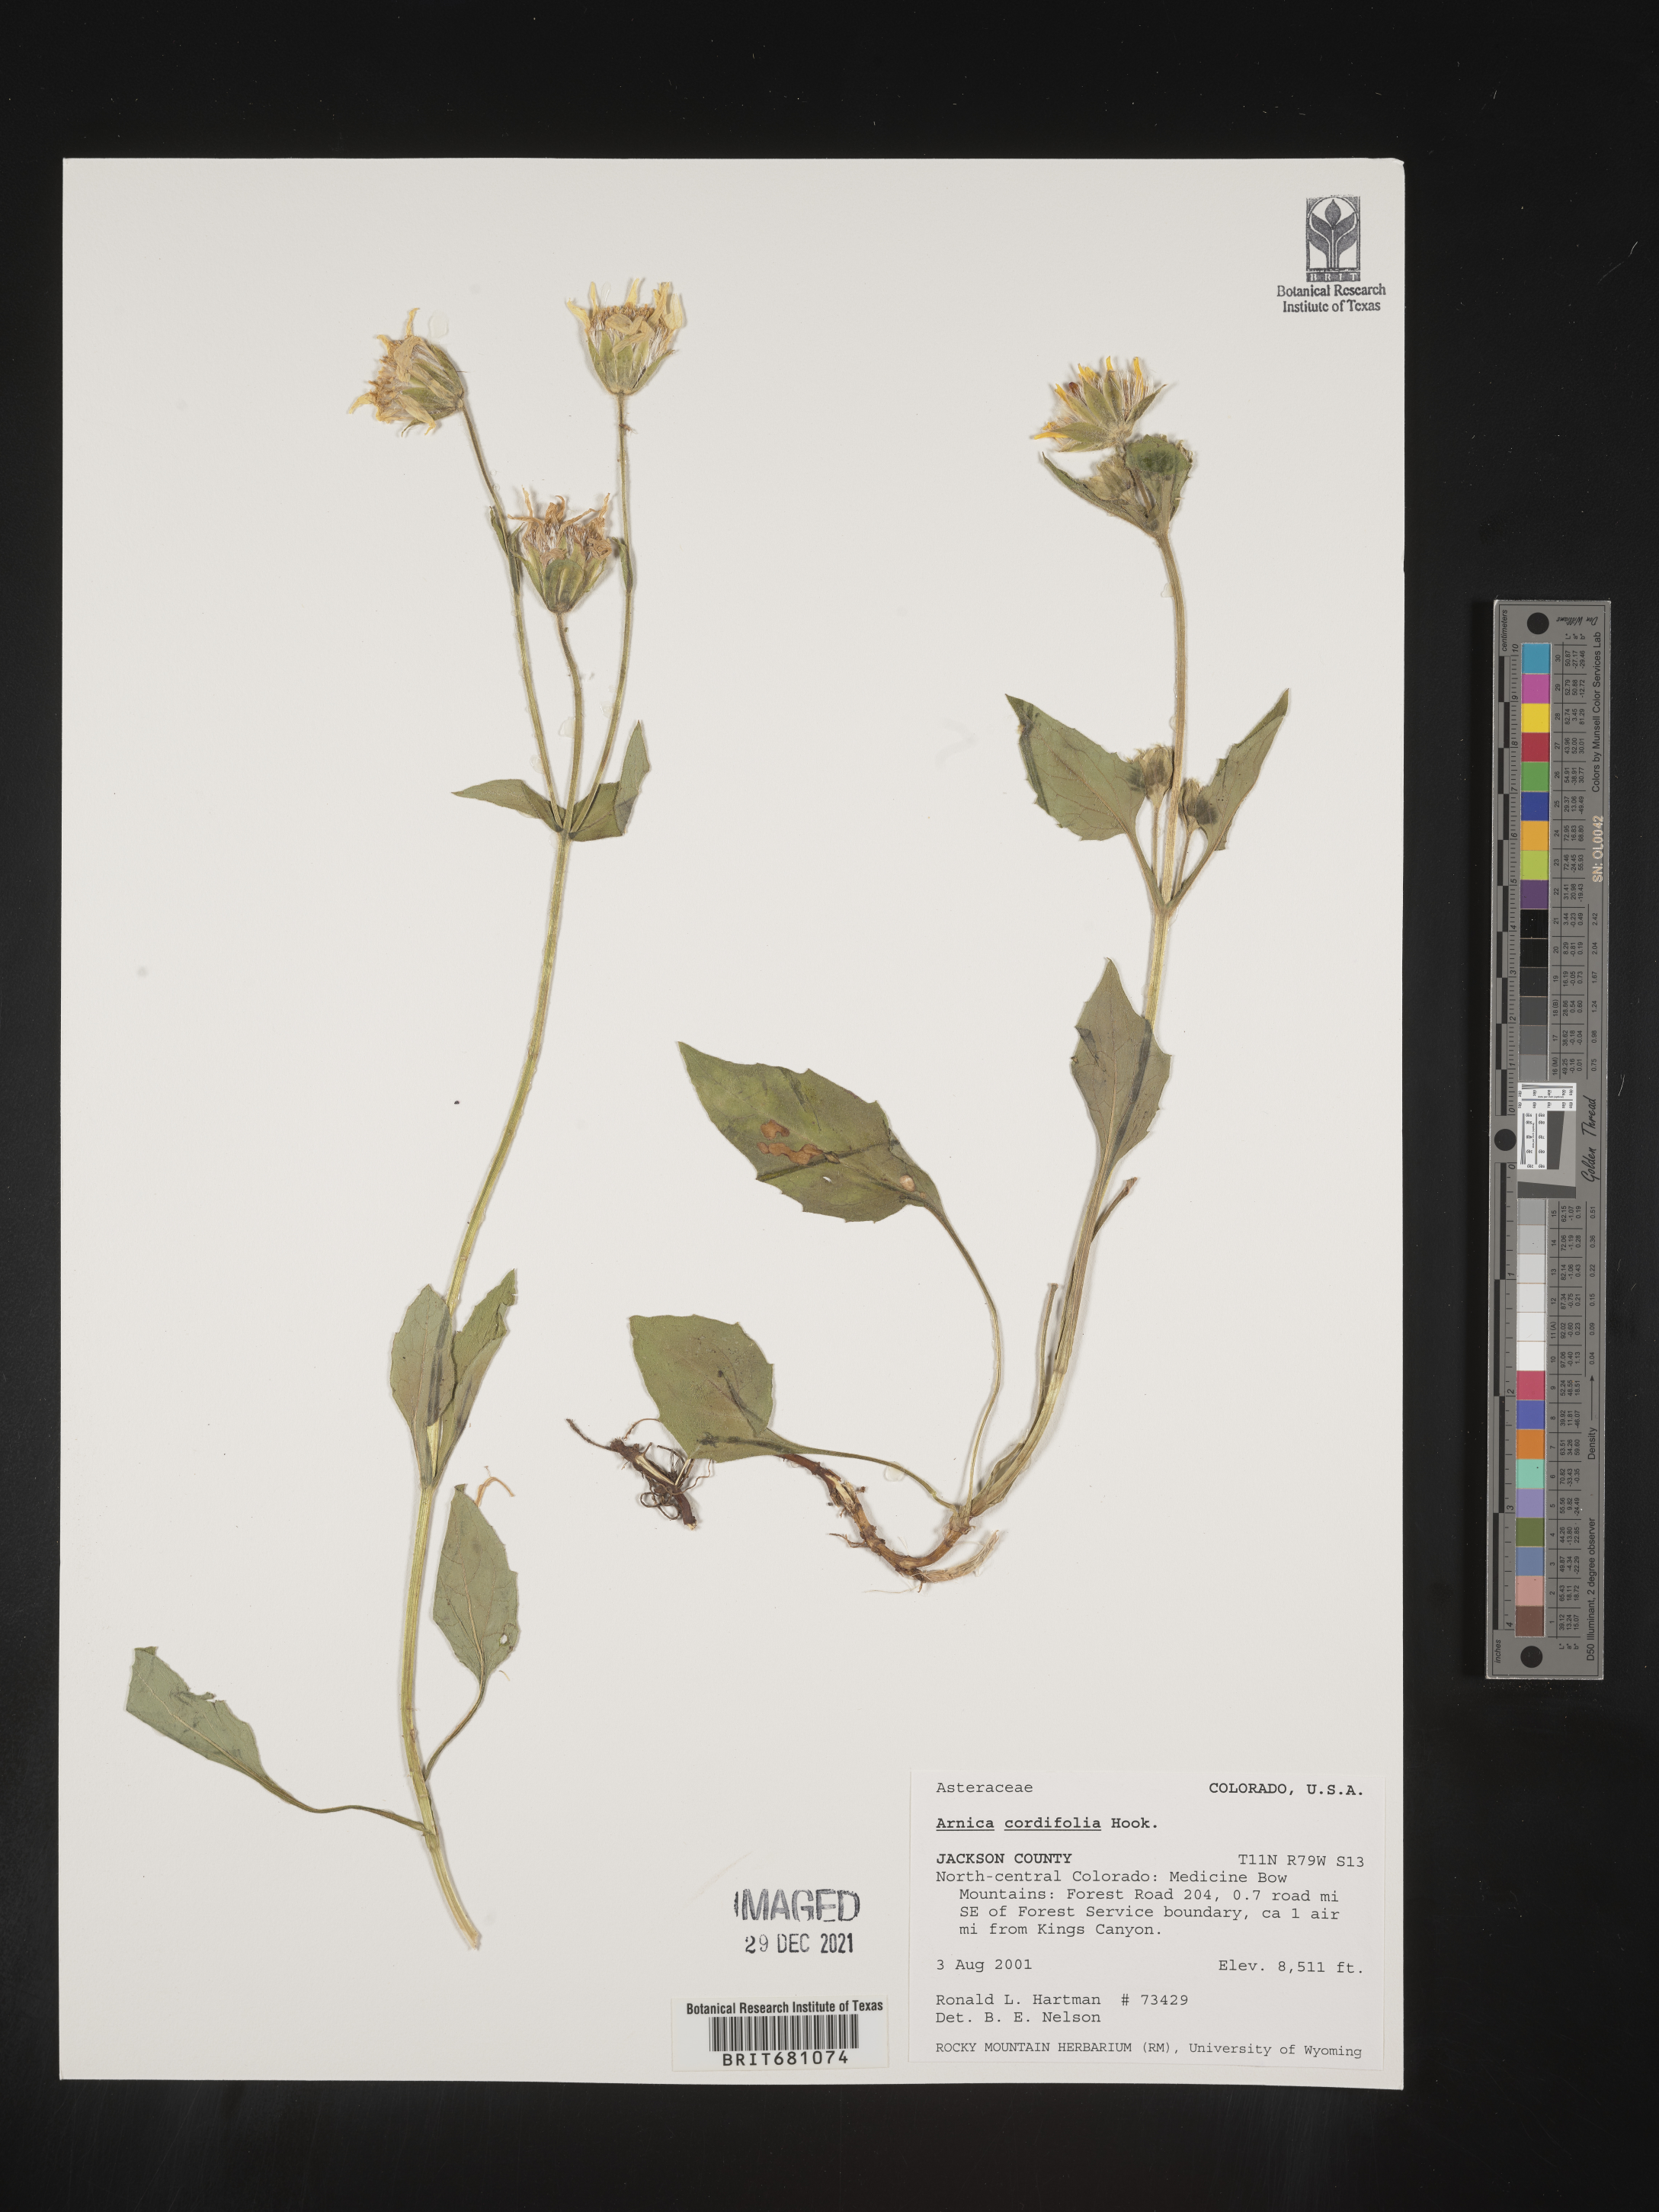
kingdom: Plantae
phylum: Tracheophyta
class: Magnoliopsida
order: Asterales
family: Asteraceae
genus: Arnica
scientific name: Arnica cordifolia
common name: Heart-leaf arnica
